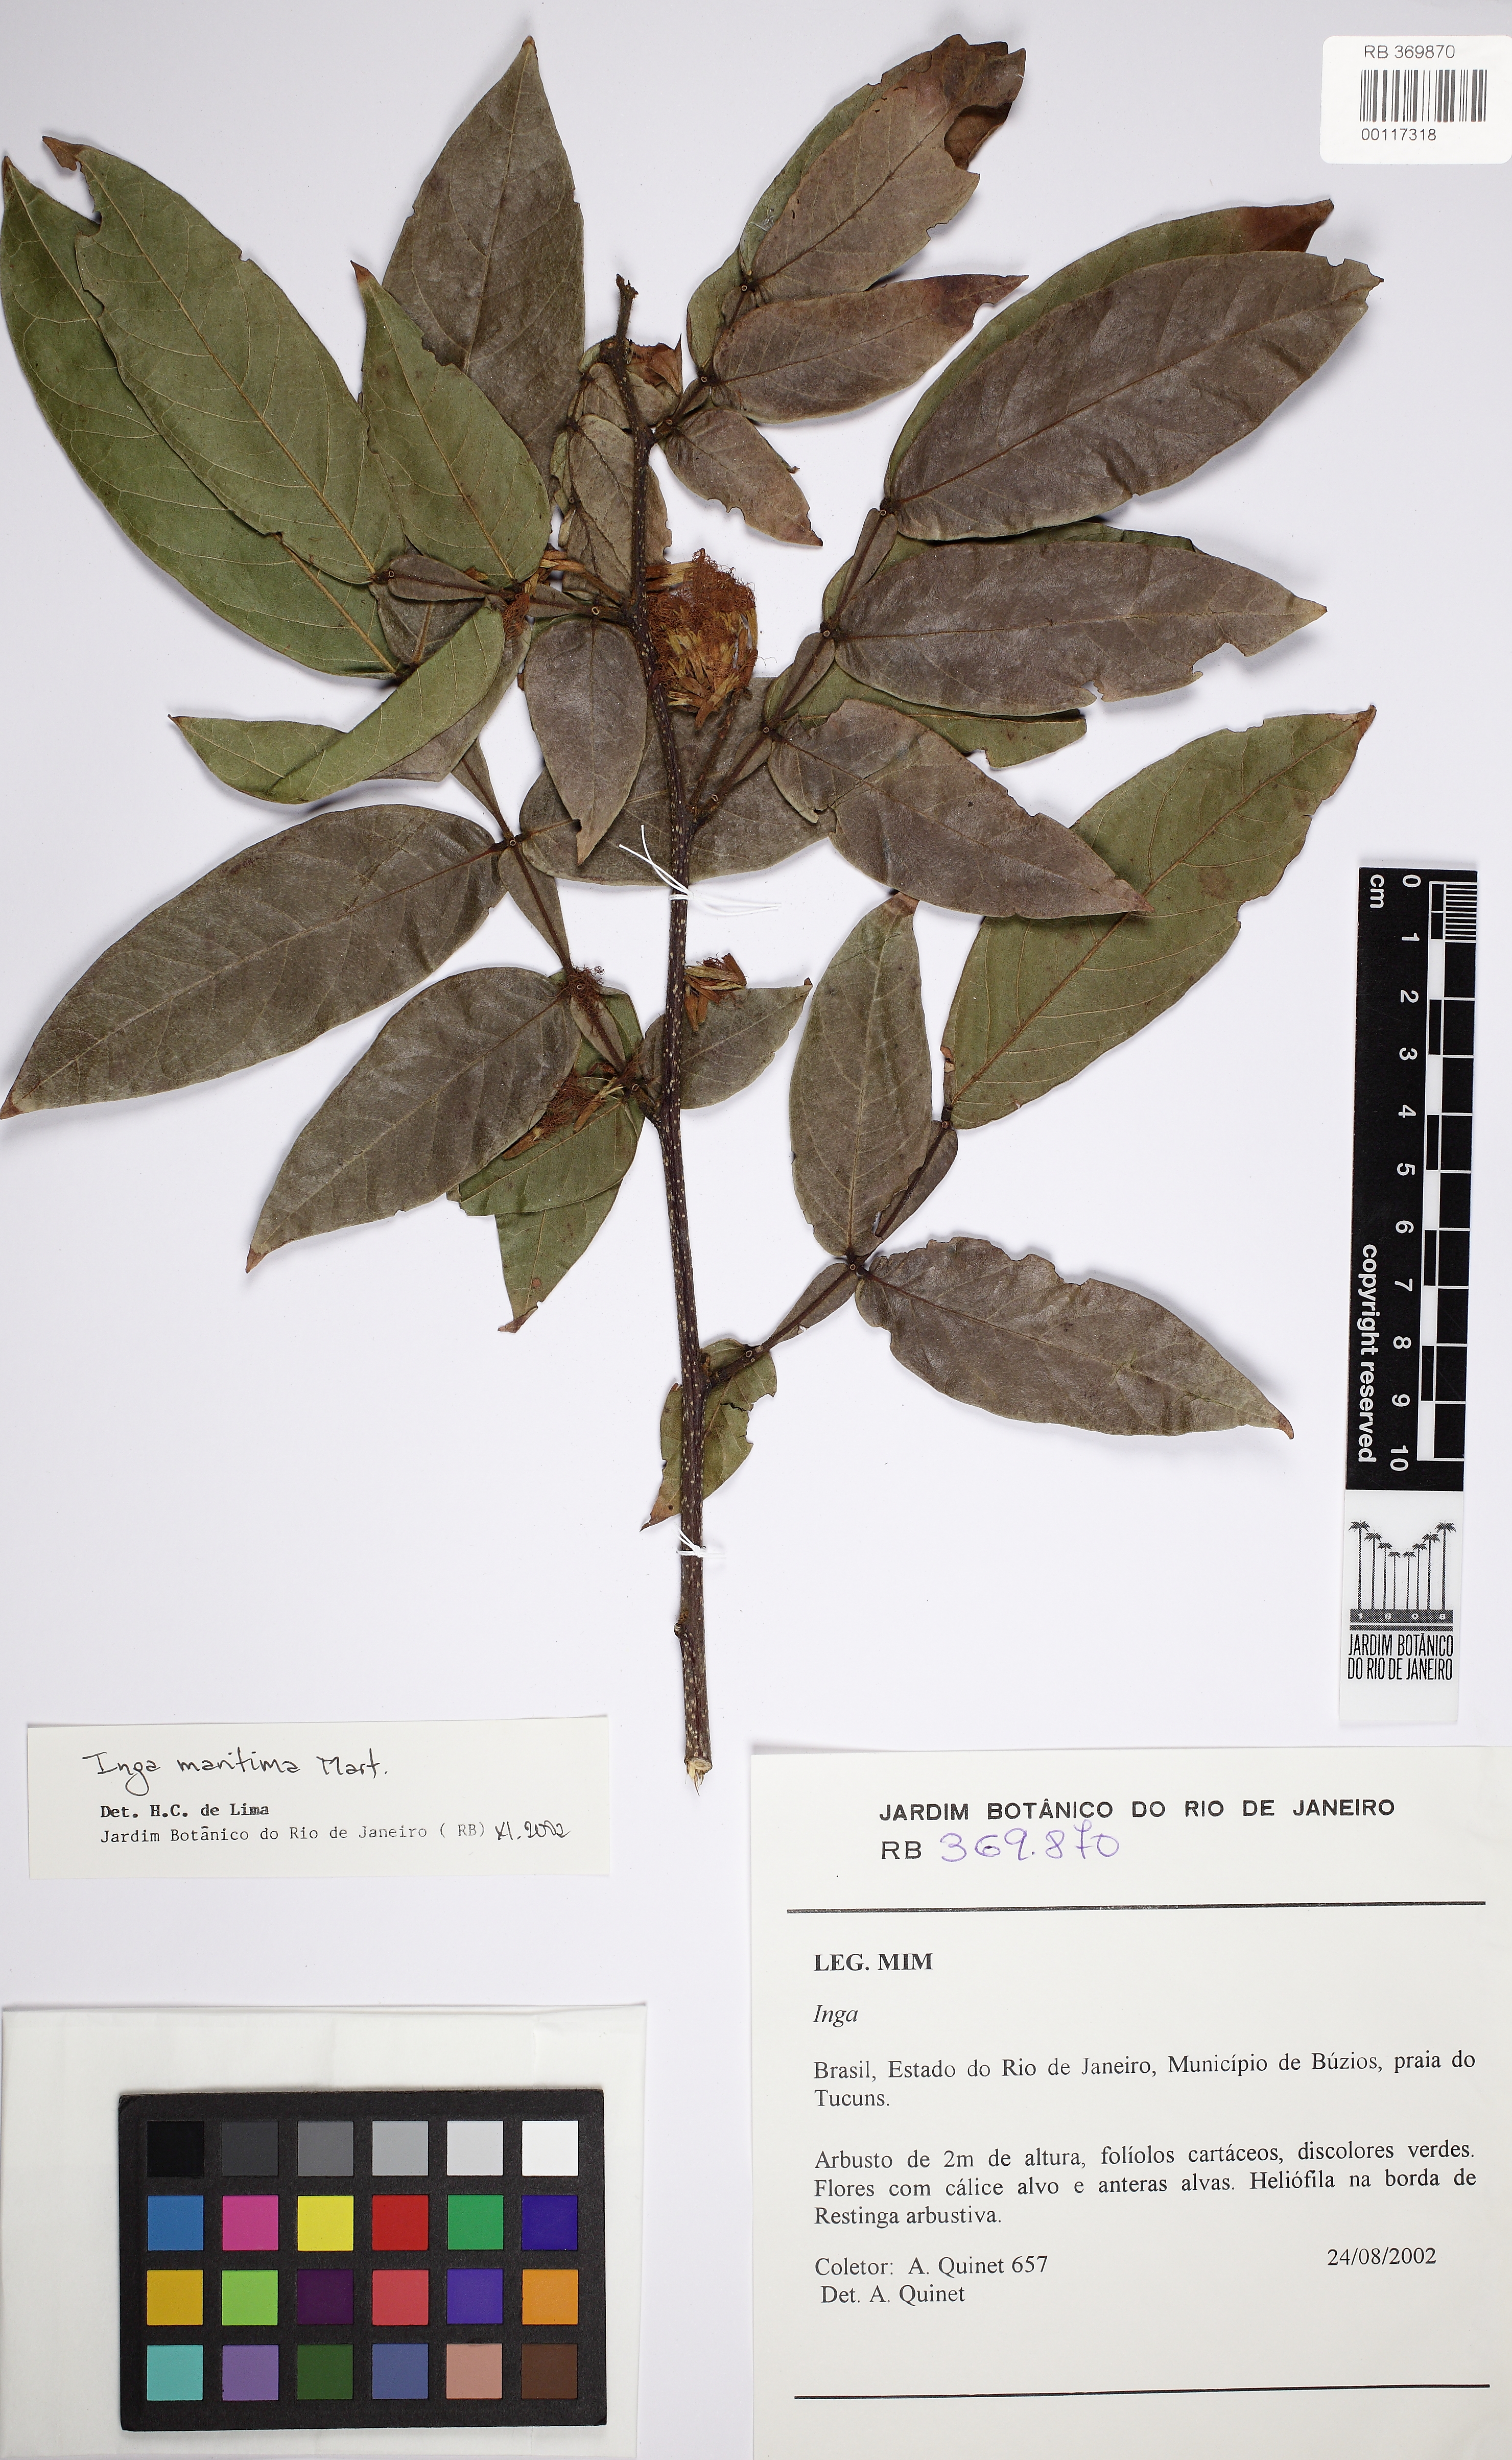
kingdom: Plantae
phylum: Tracheophyta
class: Magnoliopsida
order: Fabales
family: Fabaceae
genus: Inga
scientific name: Inga maritima
